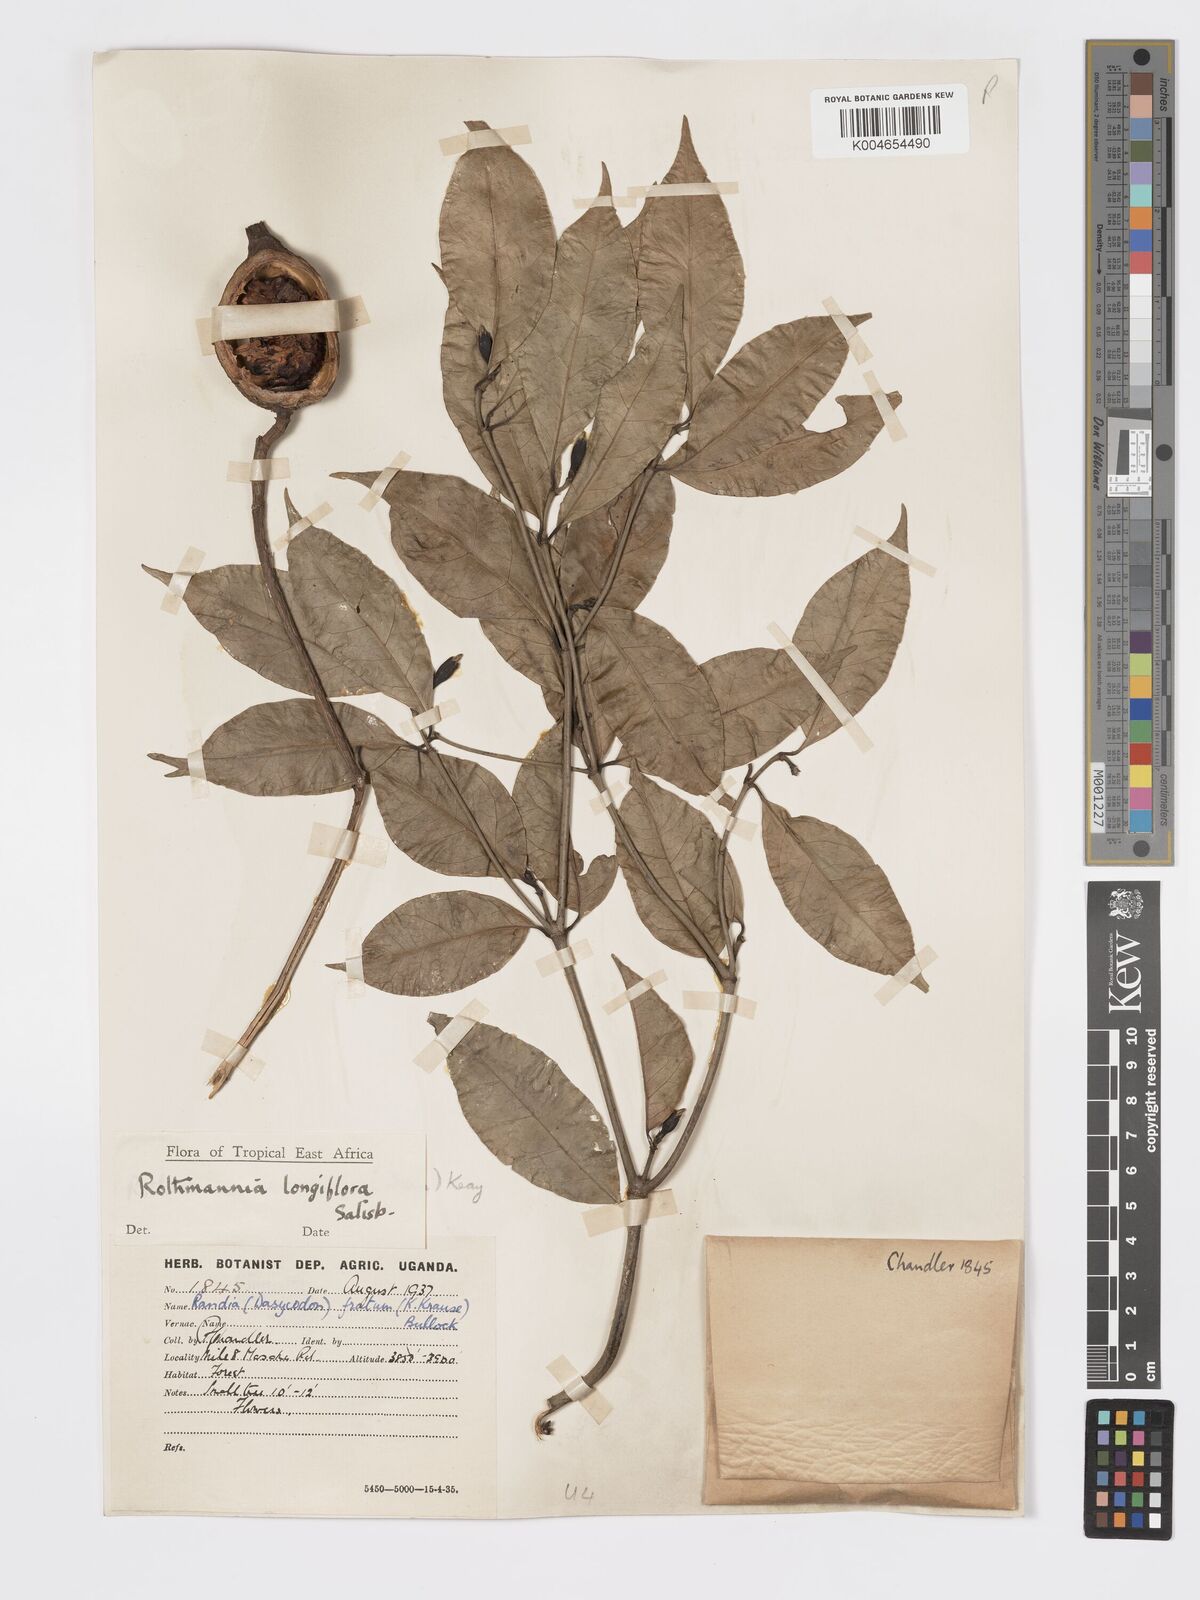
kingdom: Plantae
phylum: Tracheophyta
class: Magnoliopsida
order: Gentianales
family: Rubiaceae
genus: Rothmannia
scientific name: Rothmannia longiflora
